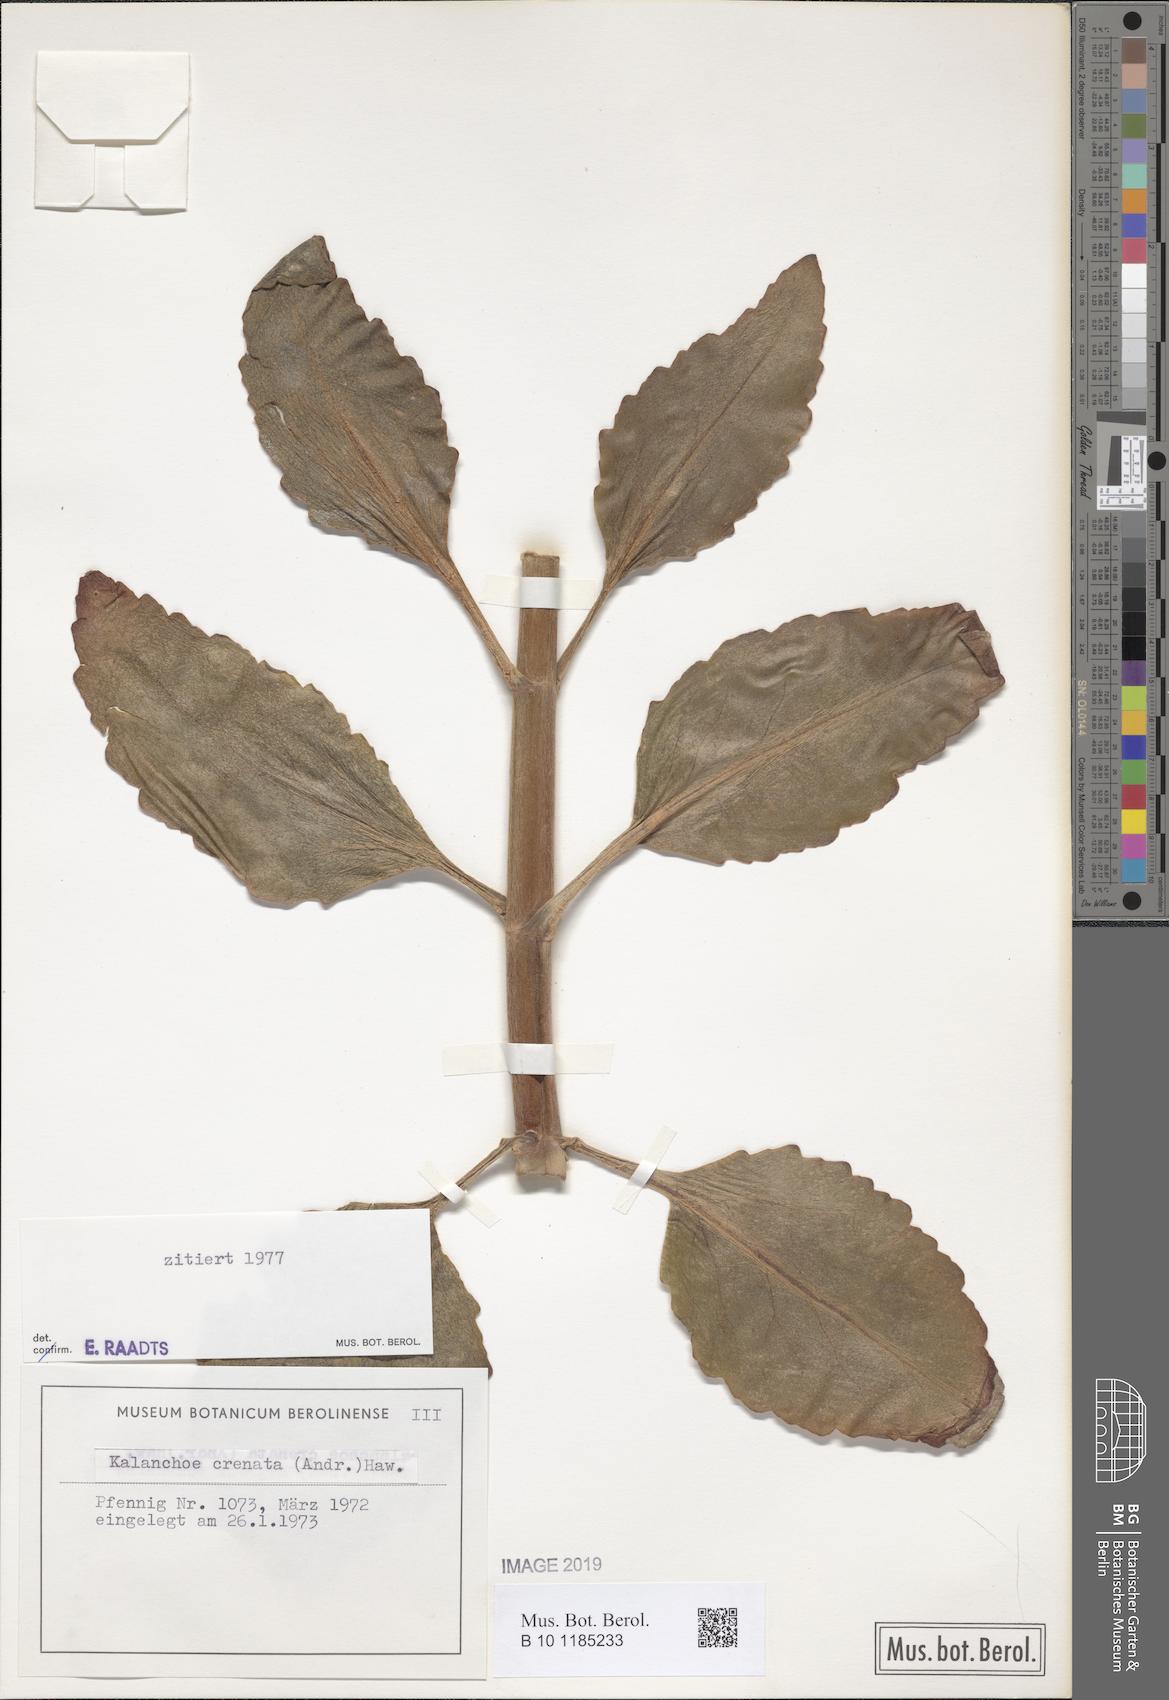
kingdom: Plantae
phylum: Tracheophyta
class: Magnoliopsida
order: Saxifragales
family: Crassulaceae
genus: Kalanchoe
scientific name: Kalanchoe crenata
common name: Neverdie
